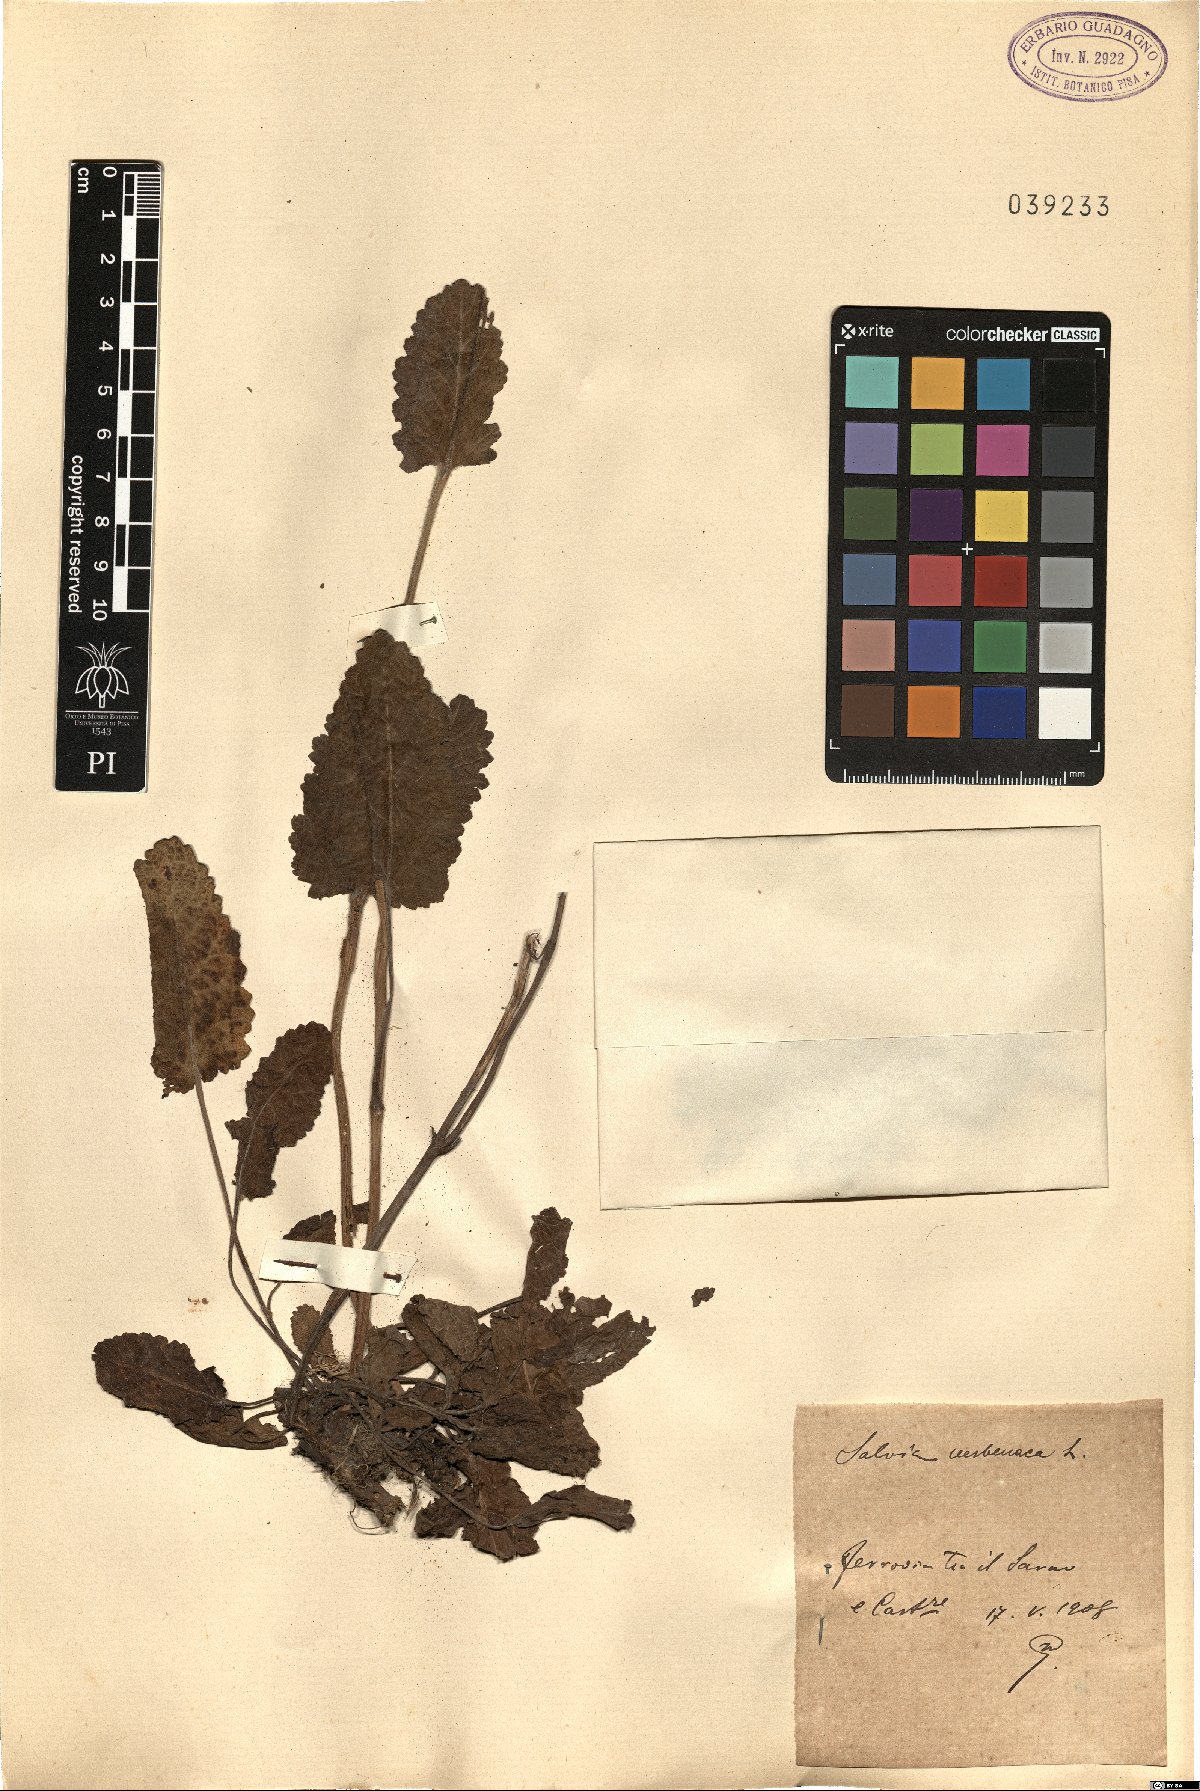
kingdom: Plantae
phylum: Tracheophyta
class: Magnoliopsida
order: Lamiales
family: Lamiaceae
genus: Salvia
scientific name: Salvia verbenaca
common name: Wild clary
